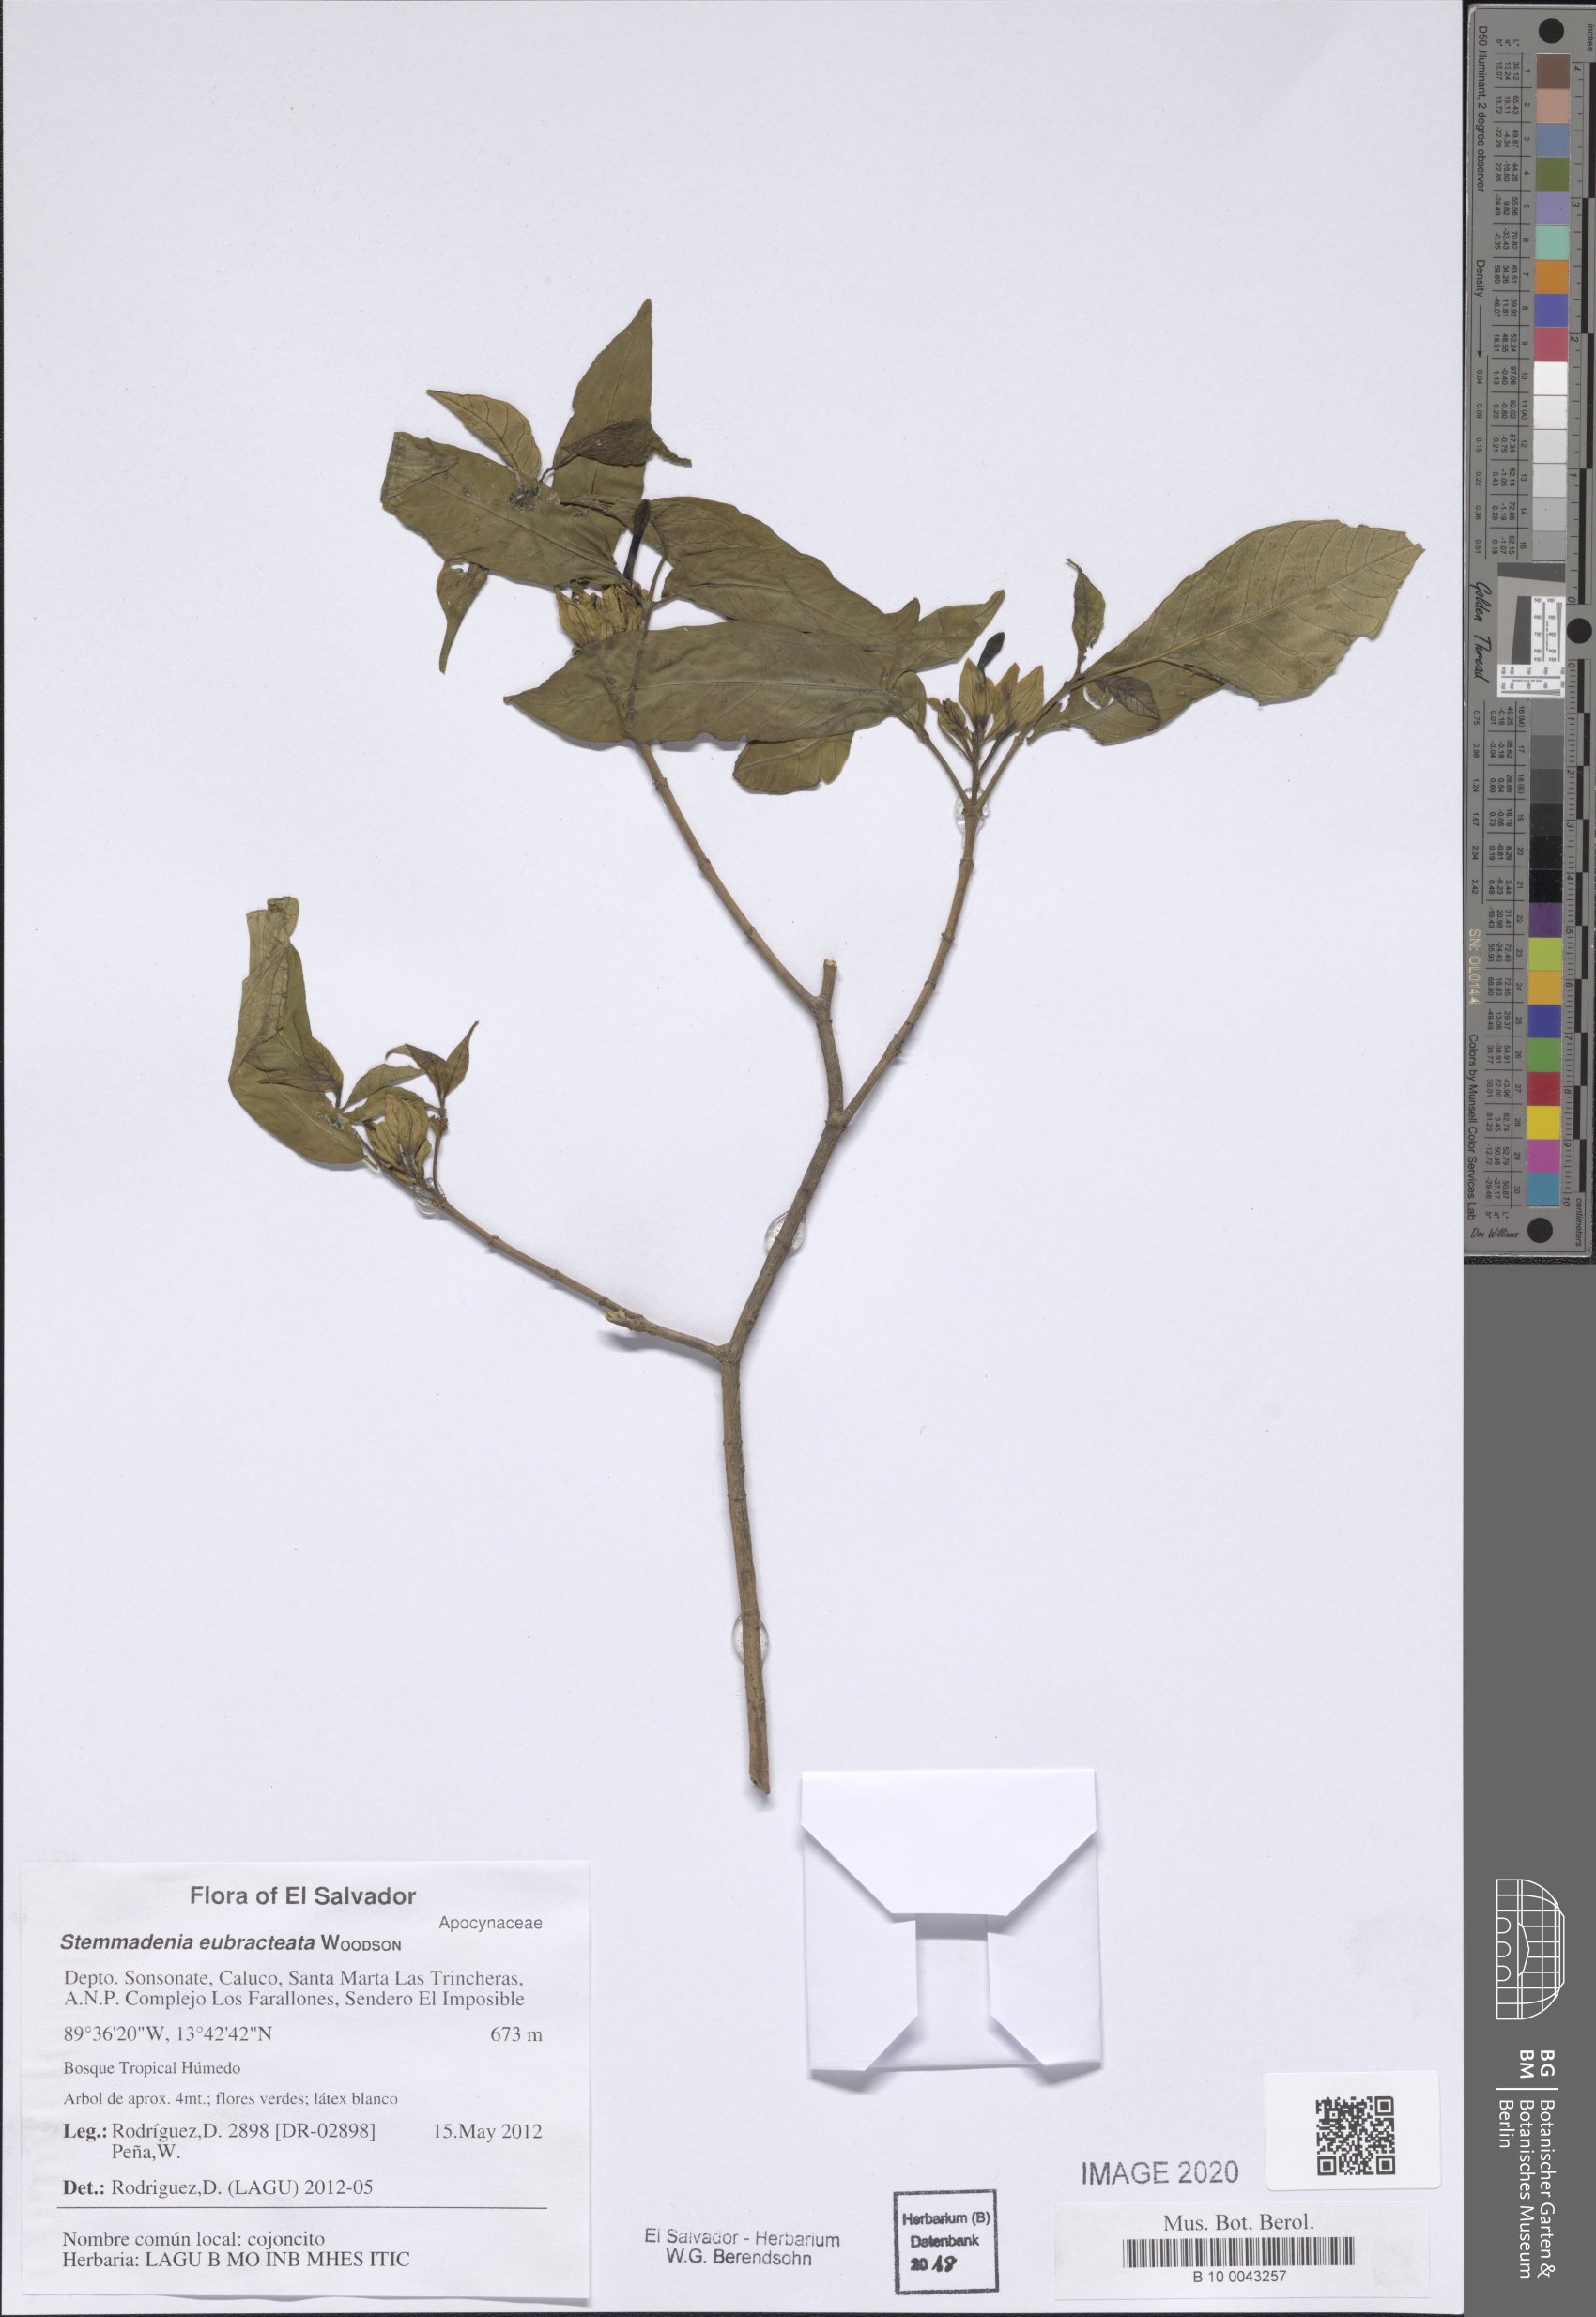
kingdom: Plantae
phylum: Tracheophyta
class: Magnoliopsida
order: Gentianales
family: Apocynaceae
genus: Tabernaemontana
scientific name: Tabernaemontana eubracteata
